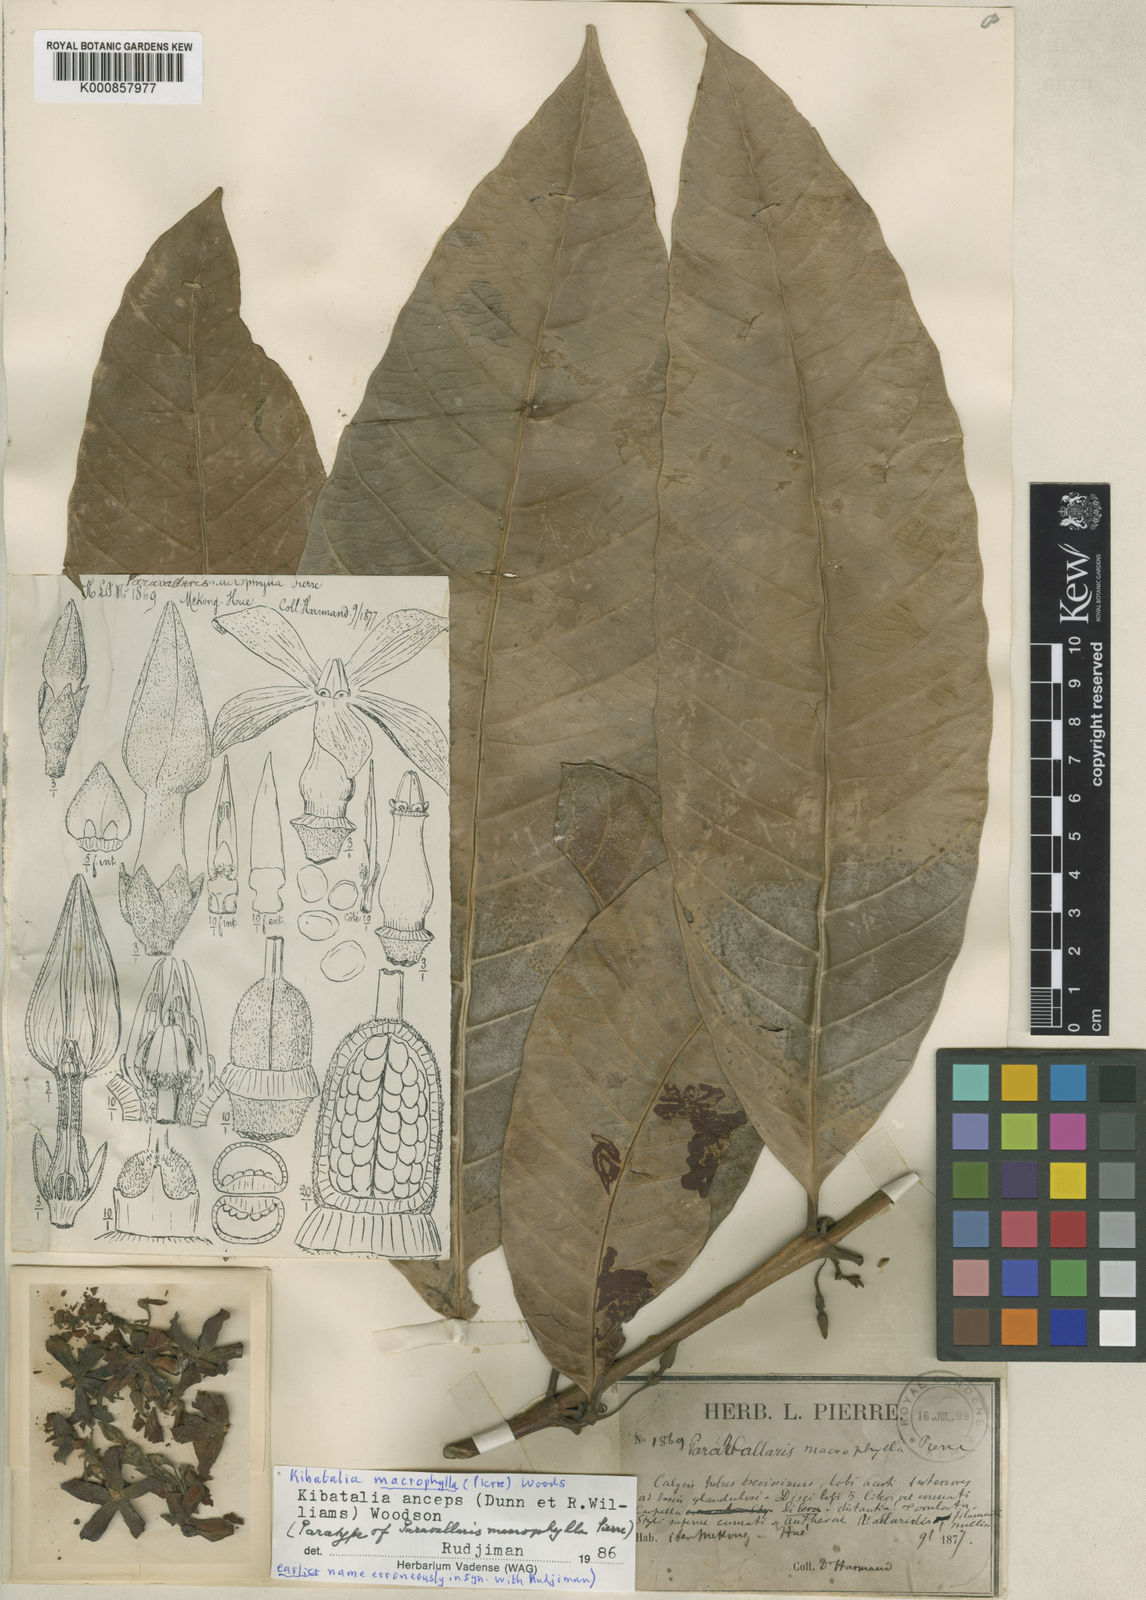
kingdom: Plantae
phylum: Tracheophyta
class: Magnoliopsida
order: Gentianales
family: Apocynaceae
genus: Kibatalia
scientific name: Kibatalia macrophylla
